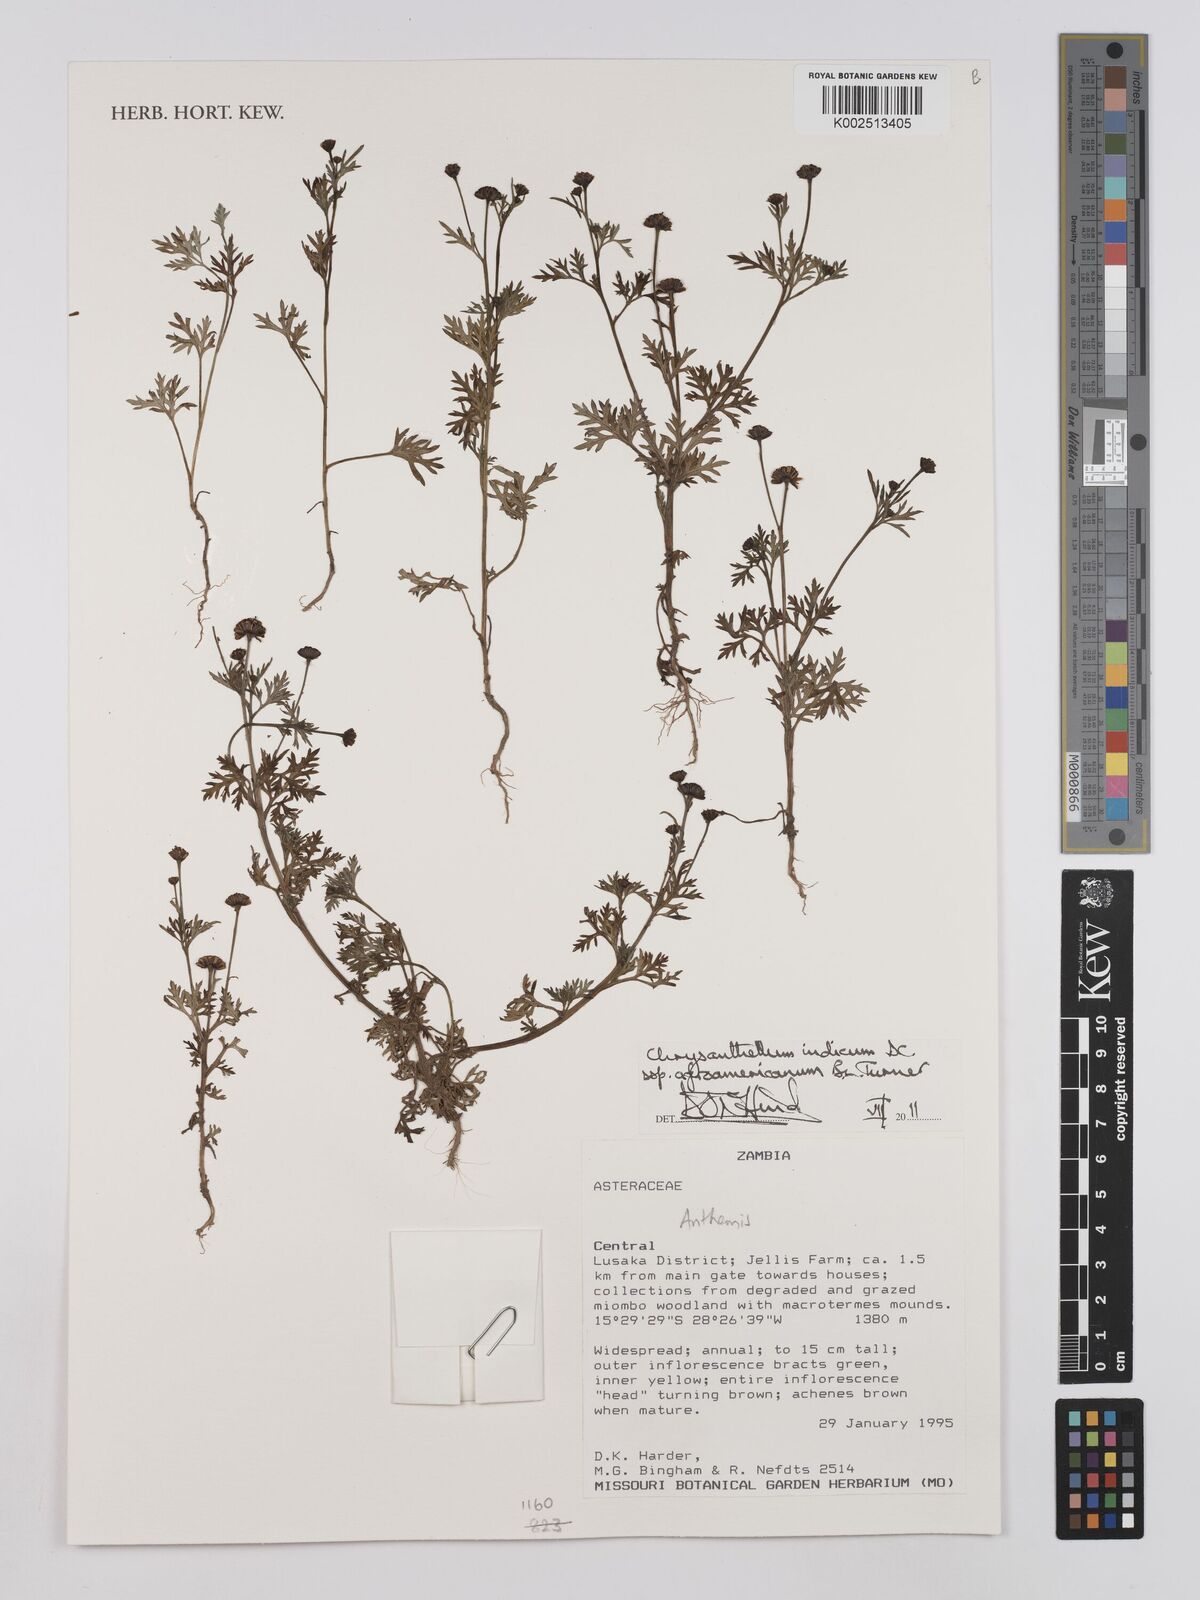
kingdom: Plantae
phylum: Tracheophyta
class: Magnoliopsida
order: Asterales
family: Asteraceae
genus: Chrysanthellum
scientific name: Chrysanthellum indicum
